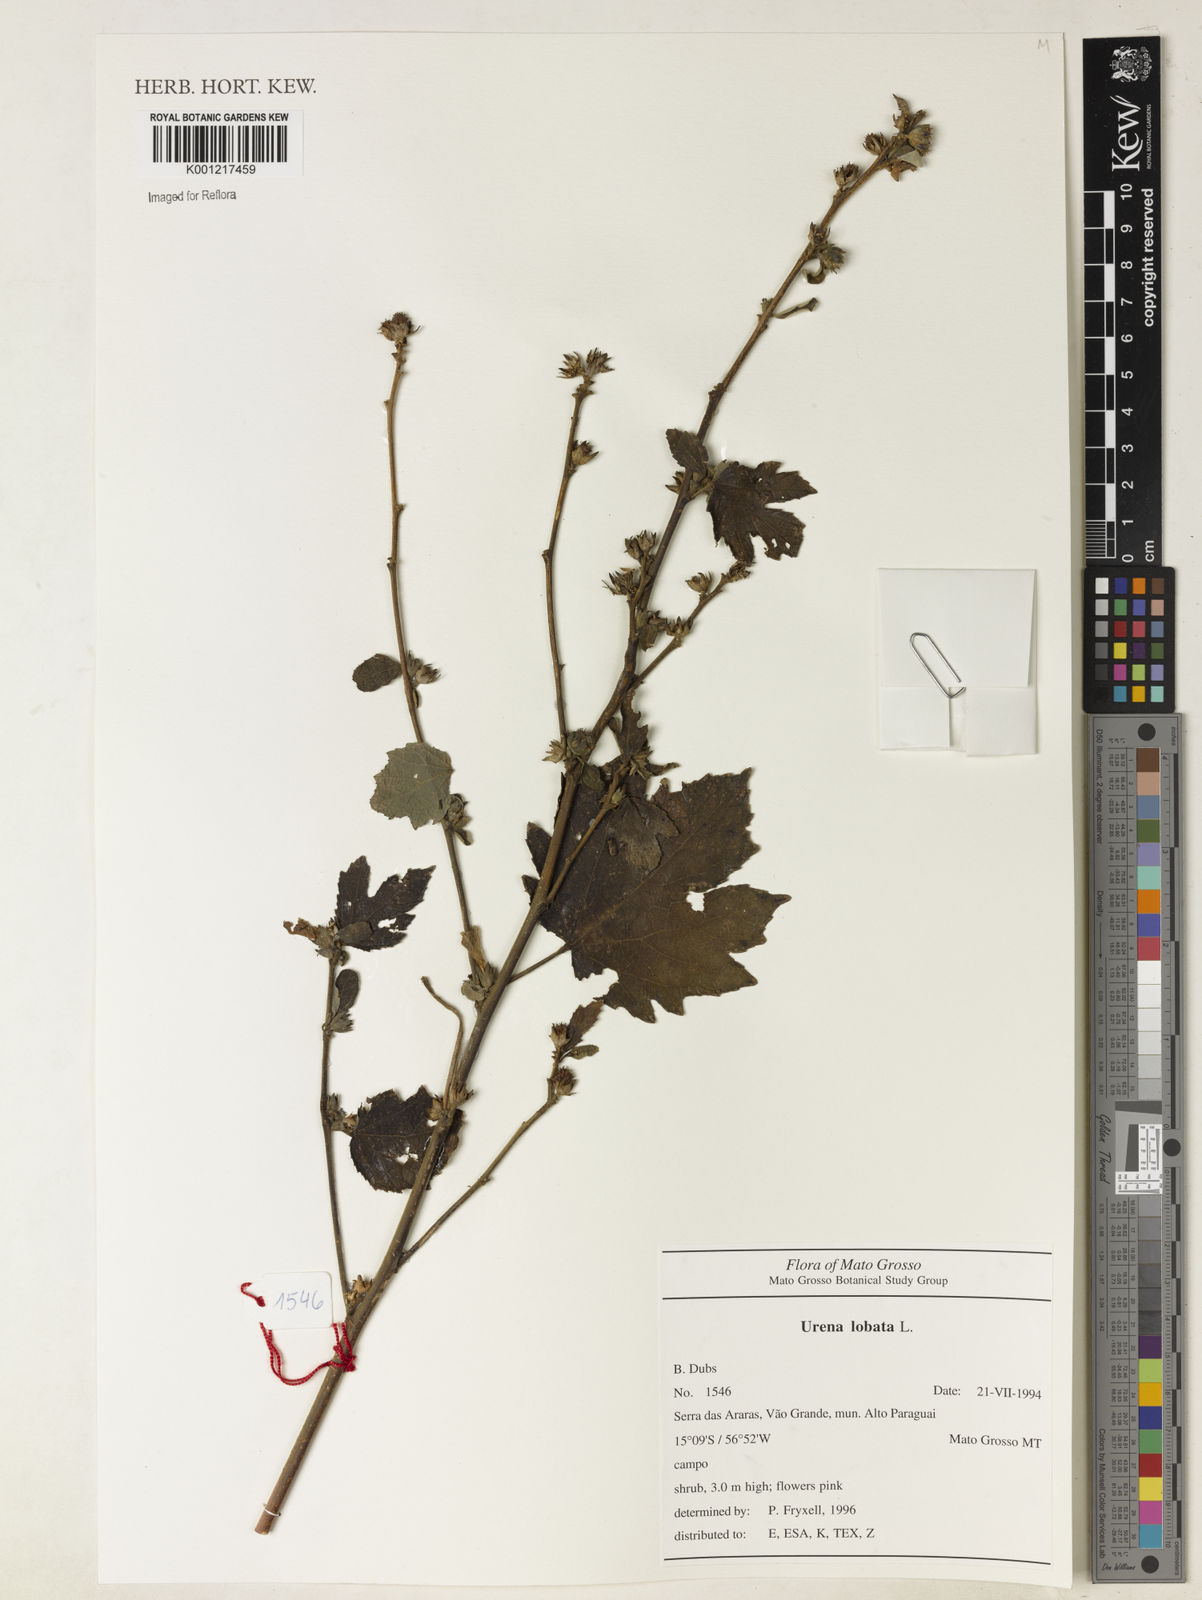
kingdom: Plantae
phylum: Tracheophyta
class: Magnoliopsida
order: Malvales
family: Malvaceae
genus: Urena
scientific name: Urena lobata
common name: Caesarweed
